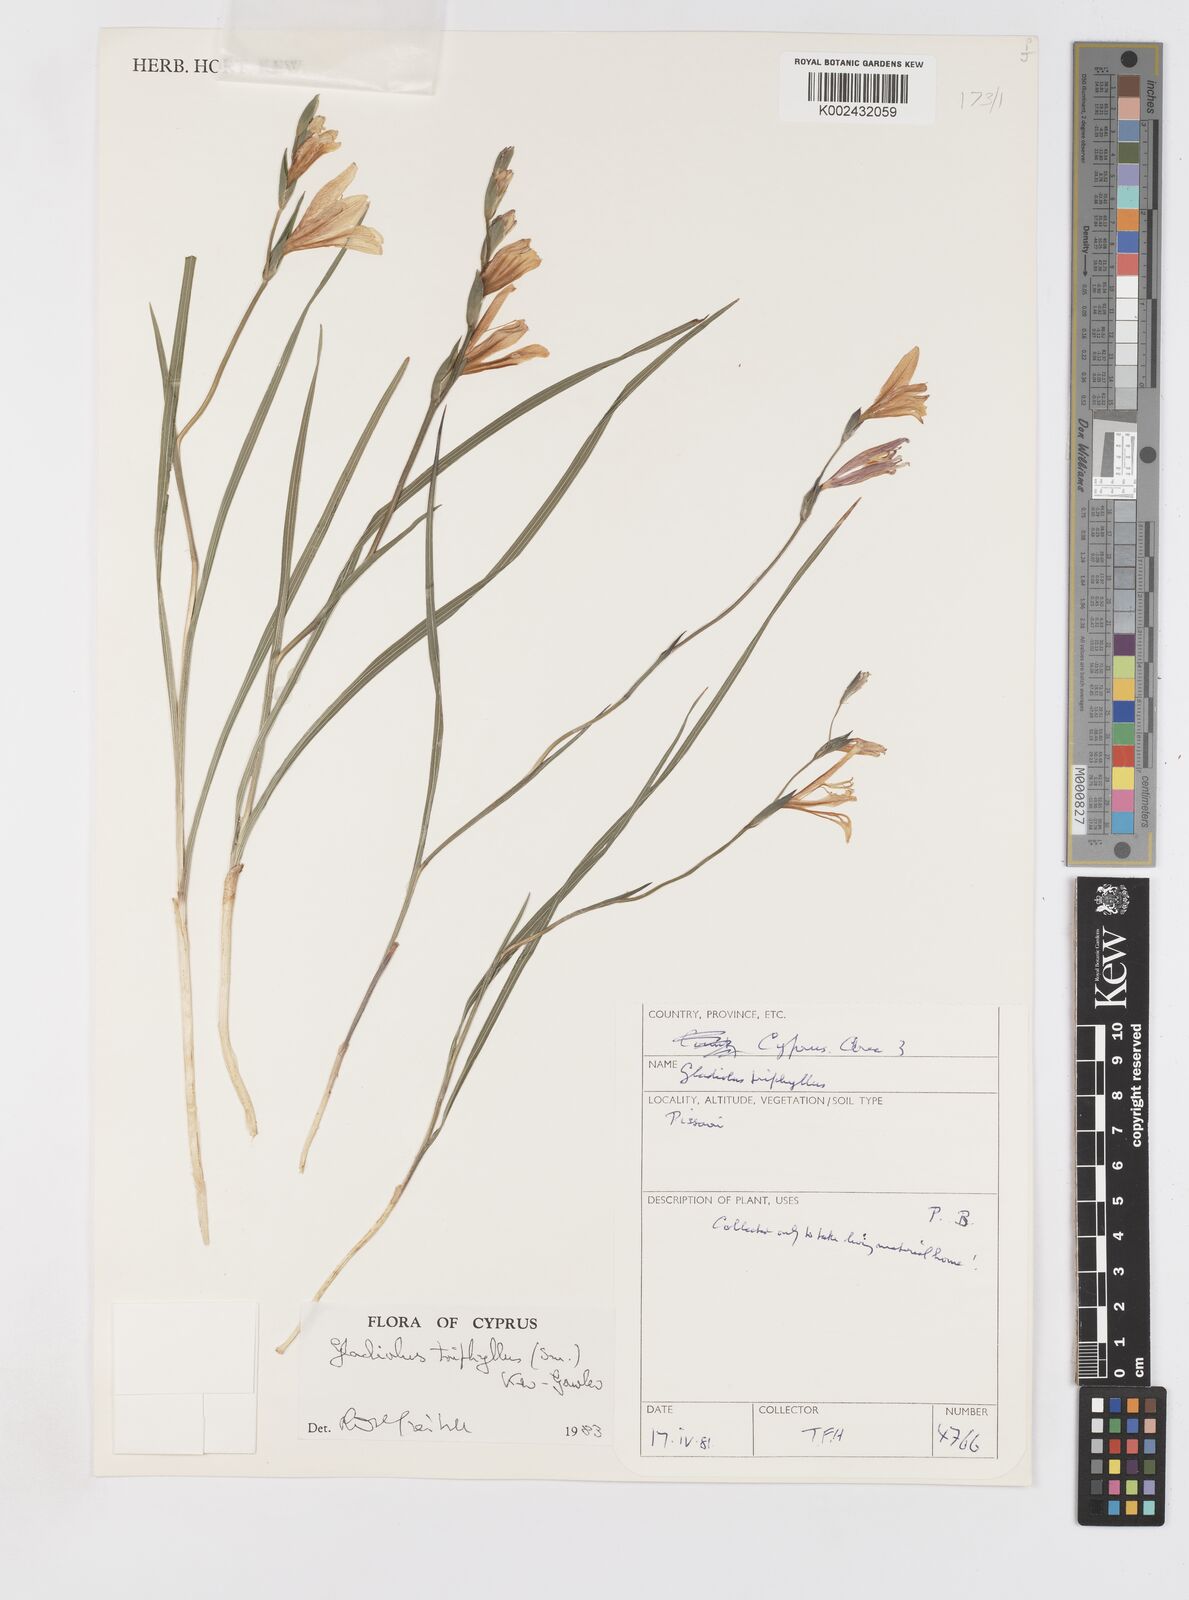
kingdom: Plantae
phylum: Tracheophyta
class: Liliopsida
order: Asparagales
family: Iridaceae
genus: Gladiolus
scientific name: Gladiolus triphyllus
